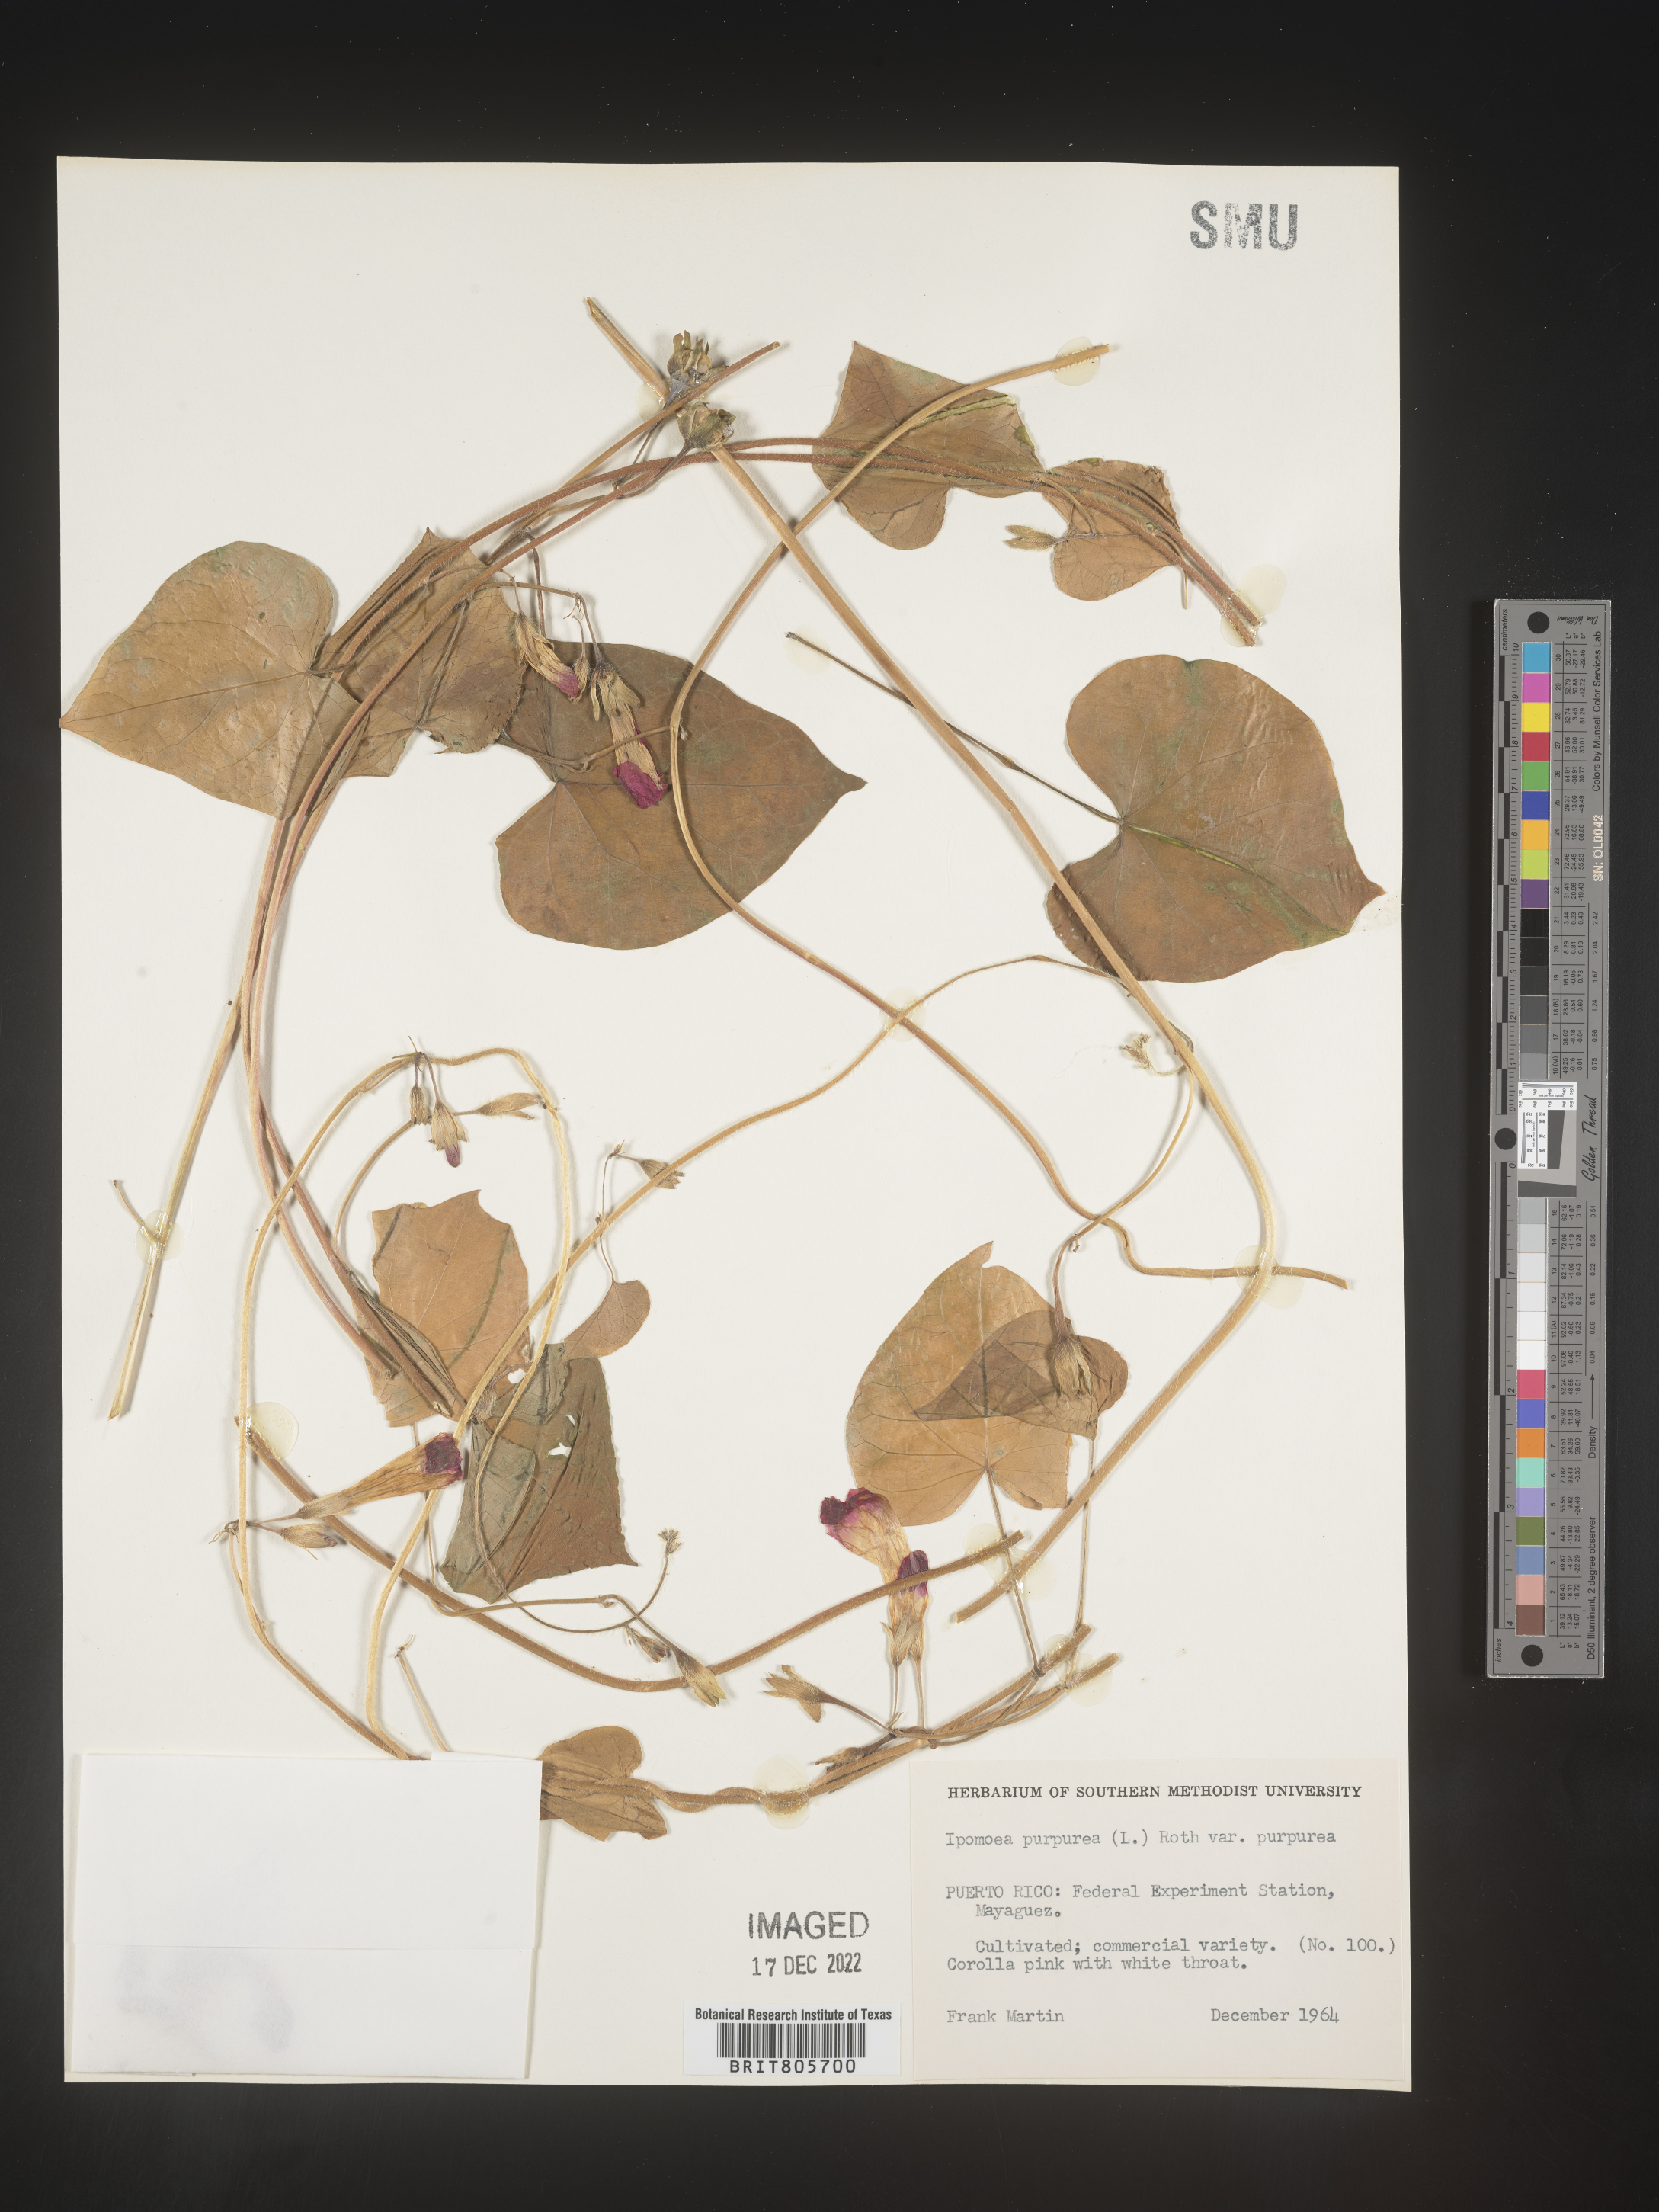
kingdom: Plantae
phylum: Tracheophyta
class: Magnoliopsida
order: Solanales
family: Convolvulaceae
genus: Ipomoea
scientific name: Ipomoea purpurea
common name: Common morning-glory
